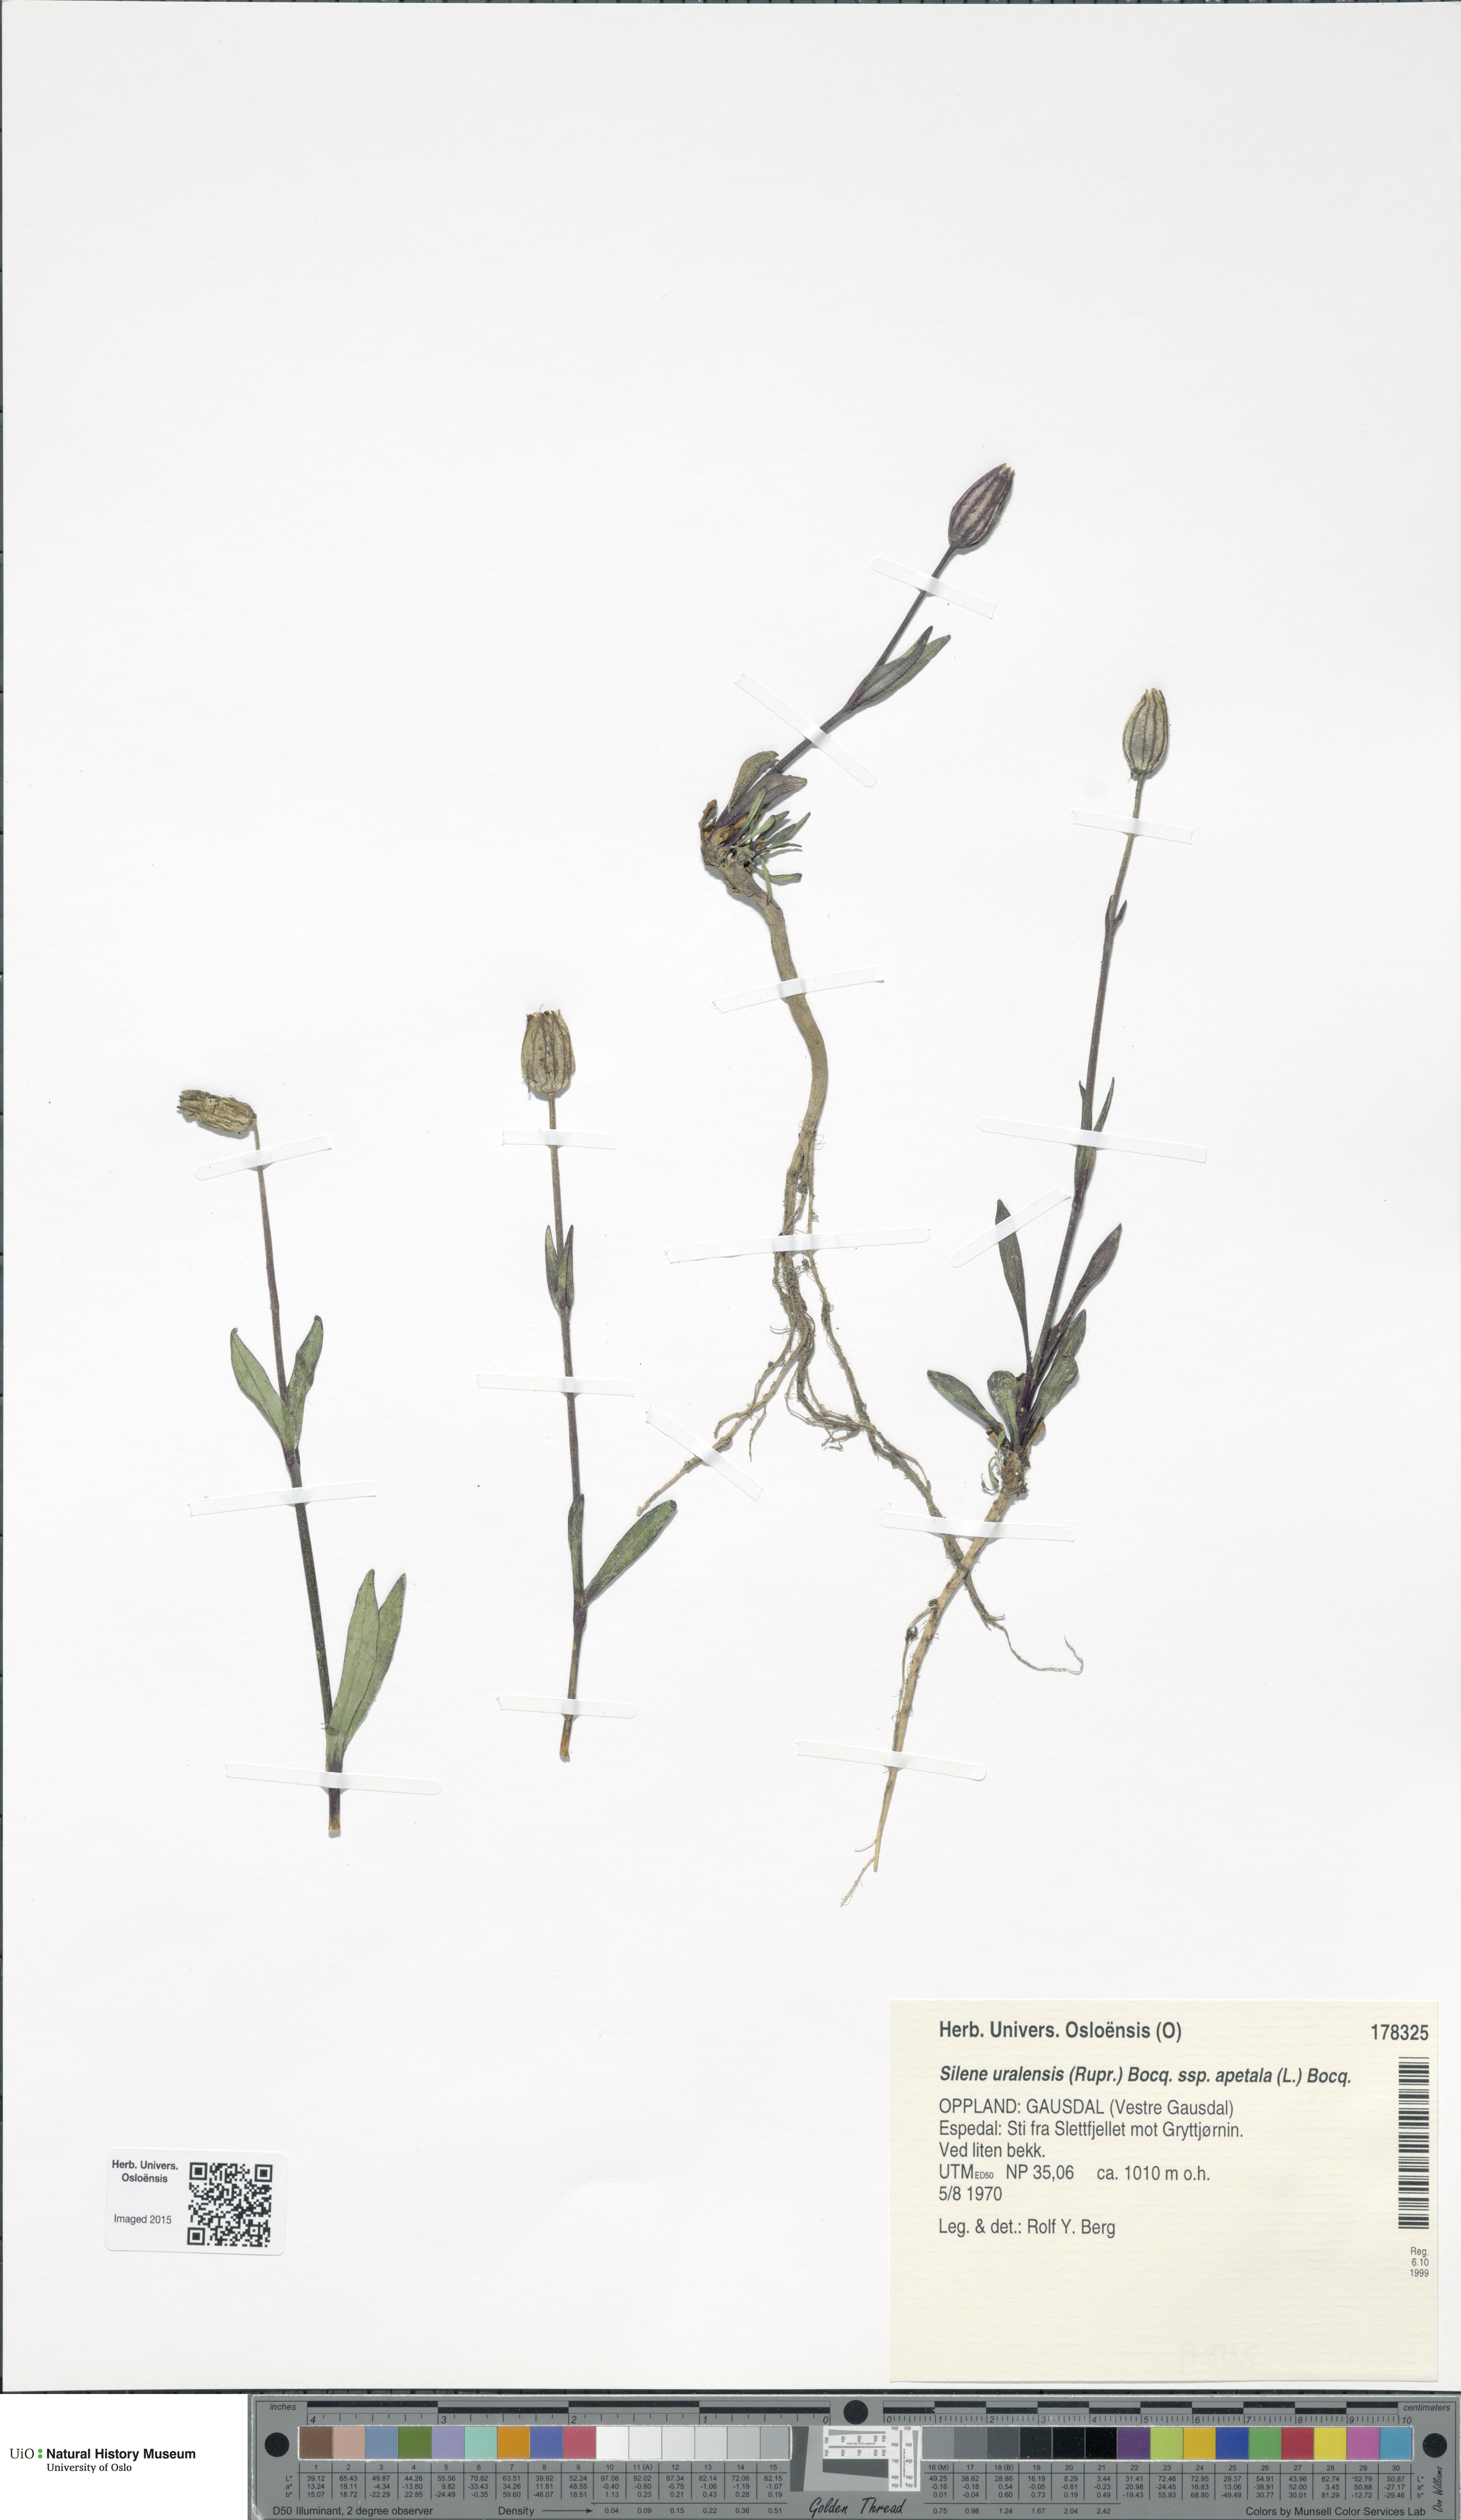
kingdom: Plantae
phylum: Tracheophyta
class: Magnoliopsida
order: Caryophyllales
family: Caryophyllaceae
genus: Silene
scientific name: Silene wahlbergella
